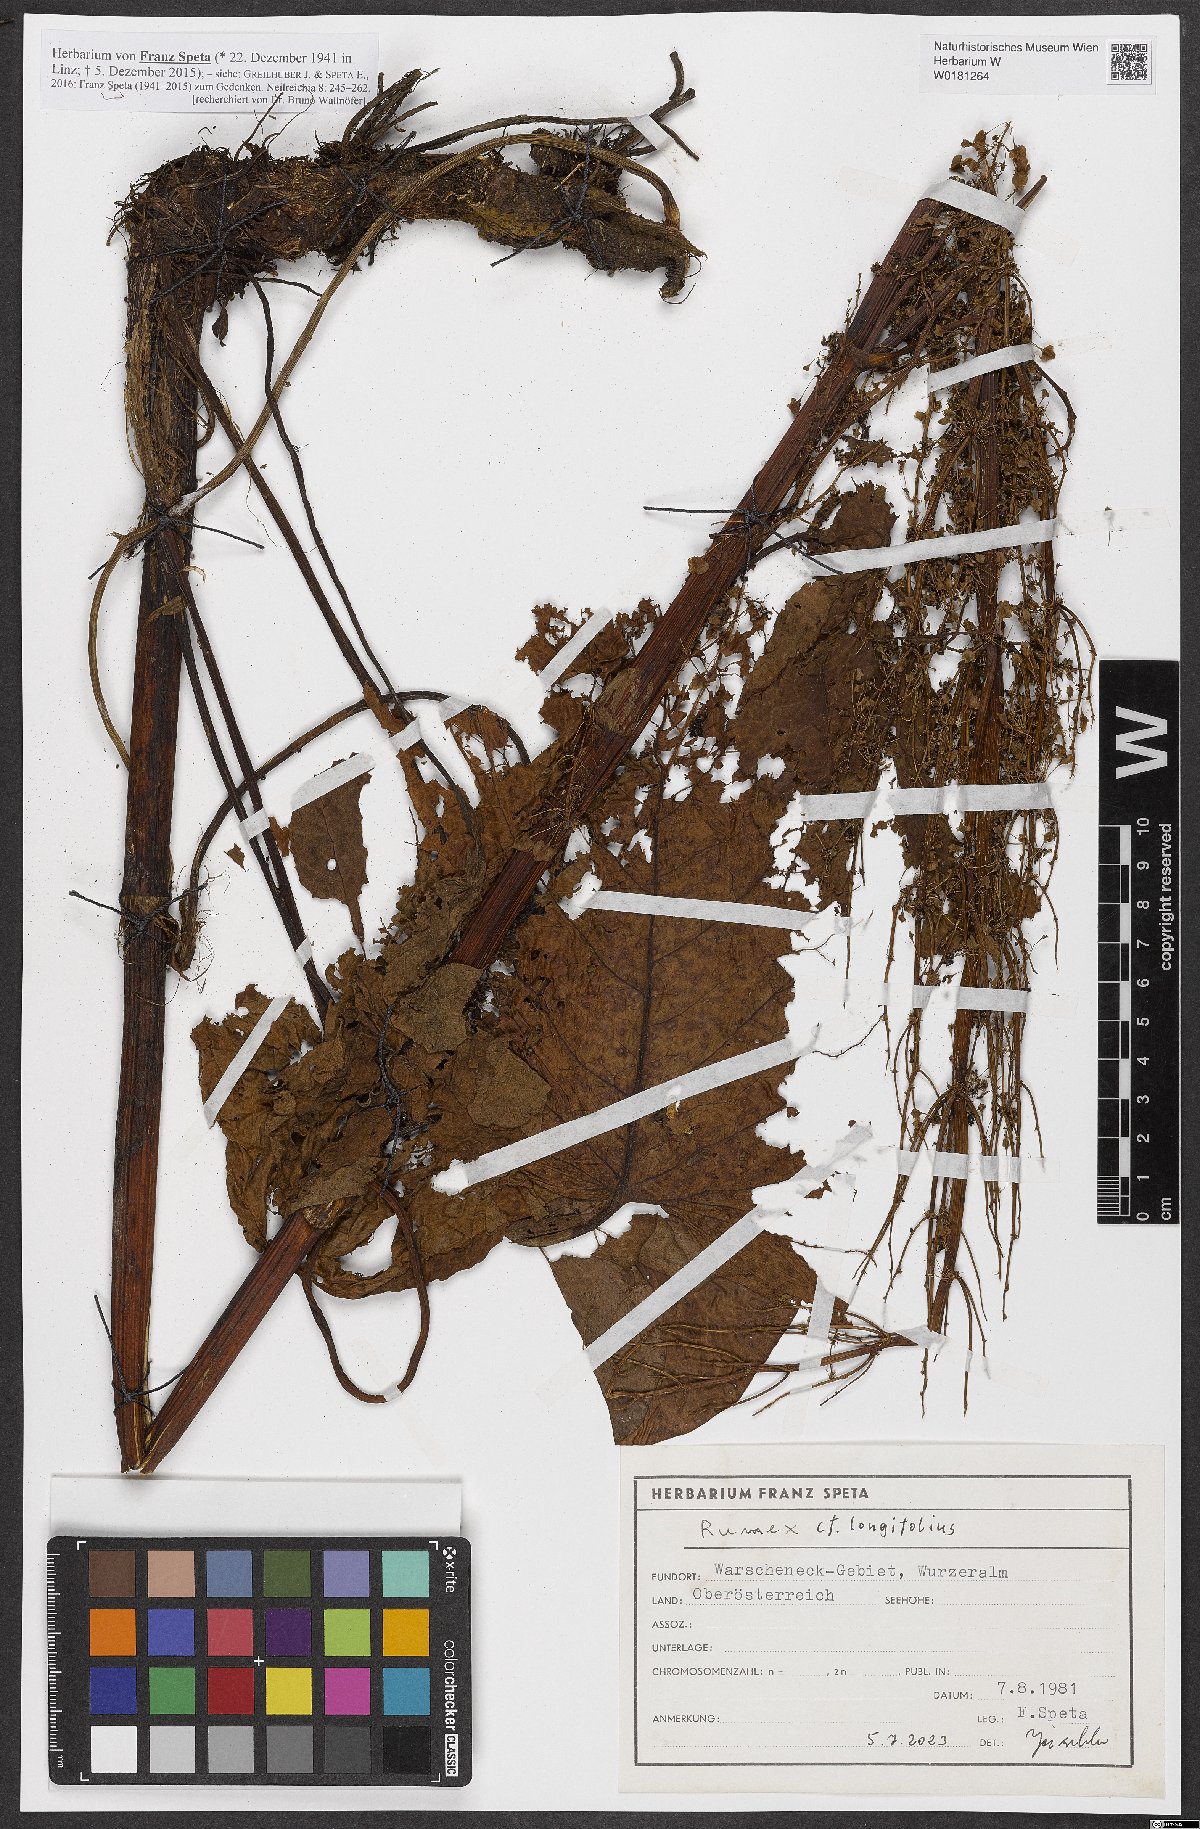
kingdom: Plantae
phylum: Tracheophyta
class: Magnoliopsida
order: Caryophyllales
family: Polygonaceae
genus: Rumex
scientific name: Rumex longifolius
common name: Dooryard dock
